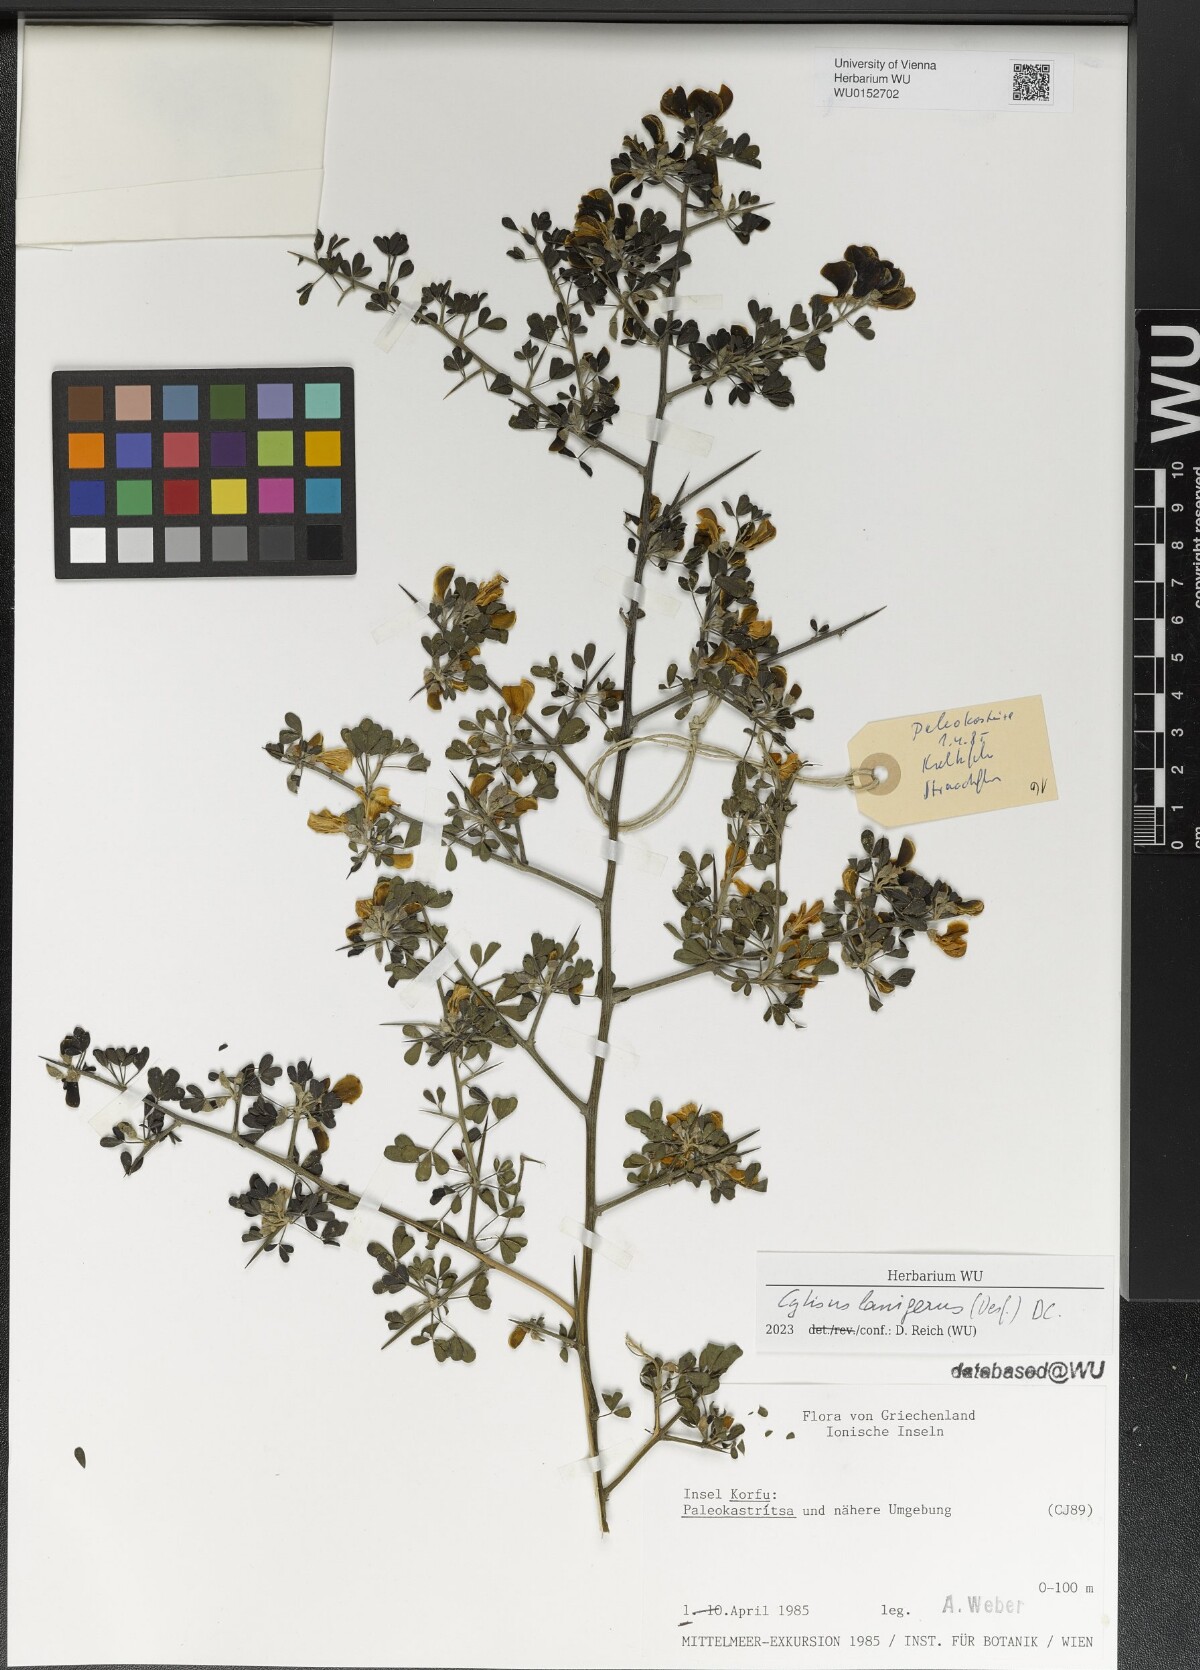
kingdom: Plantae
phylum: Tracheophyta
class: Magnoliopsida
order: Fabales
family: Fabaceae
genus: Calicotome
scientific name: Calicotome villosa
